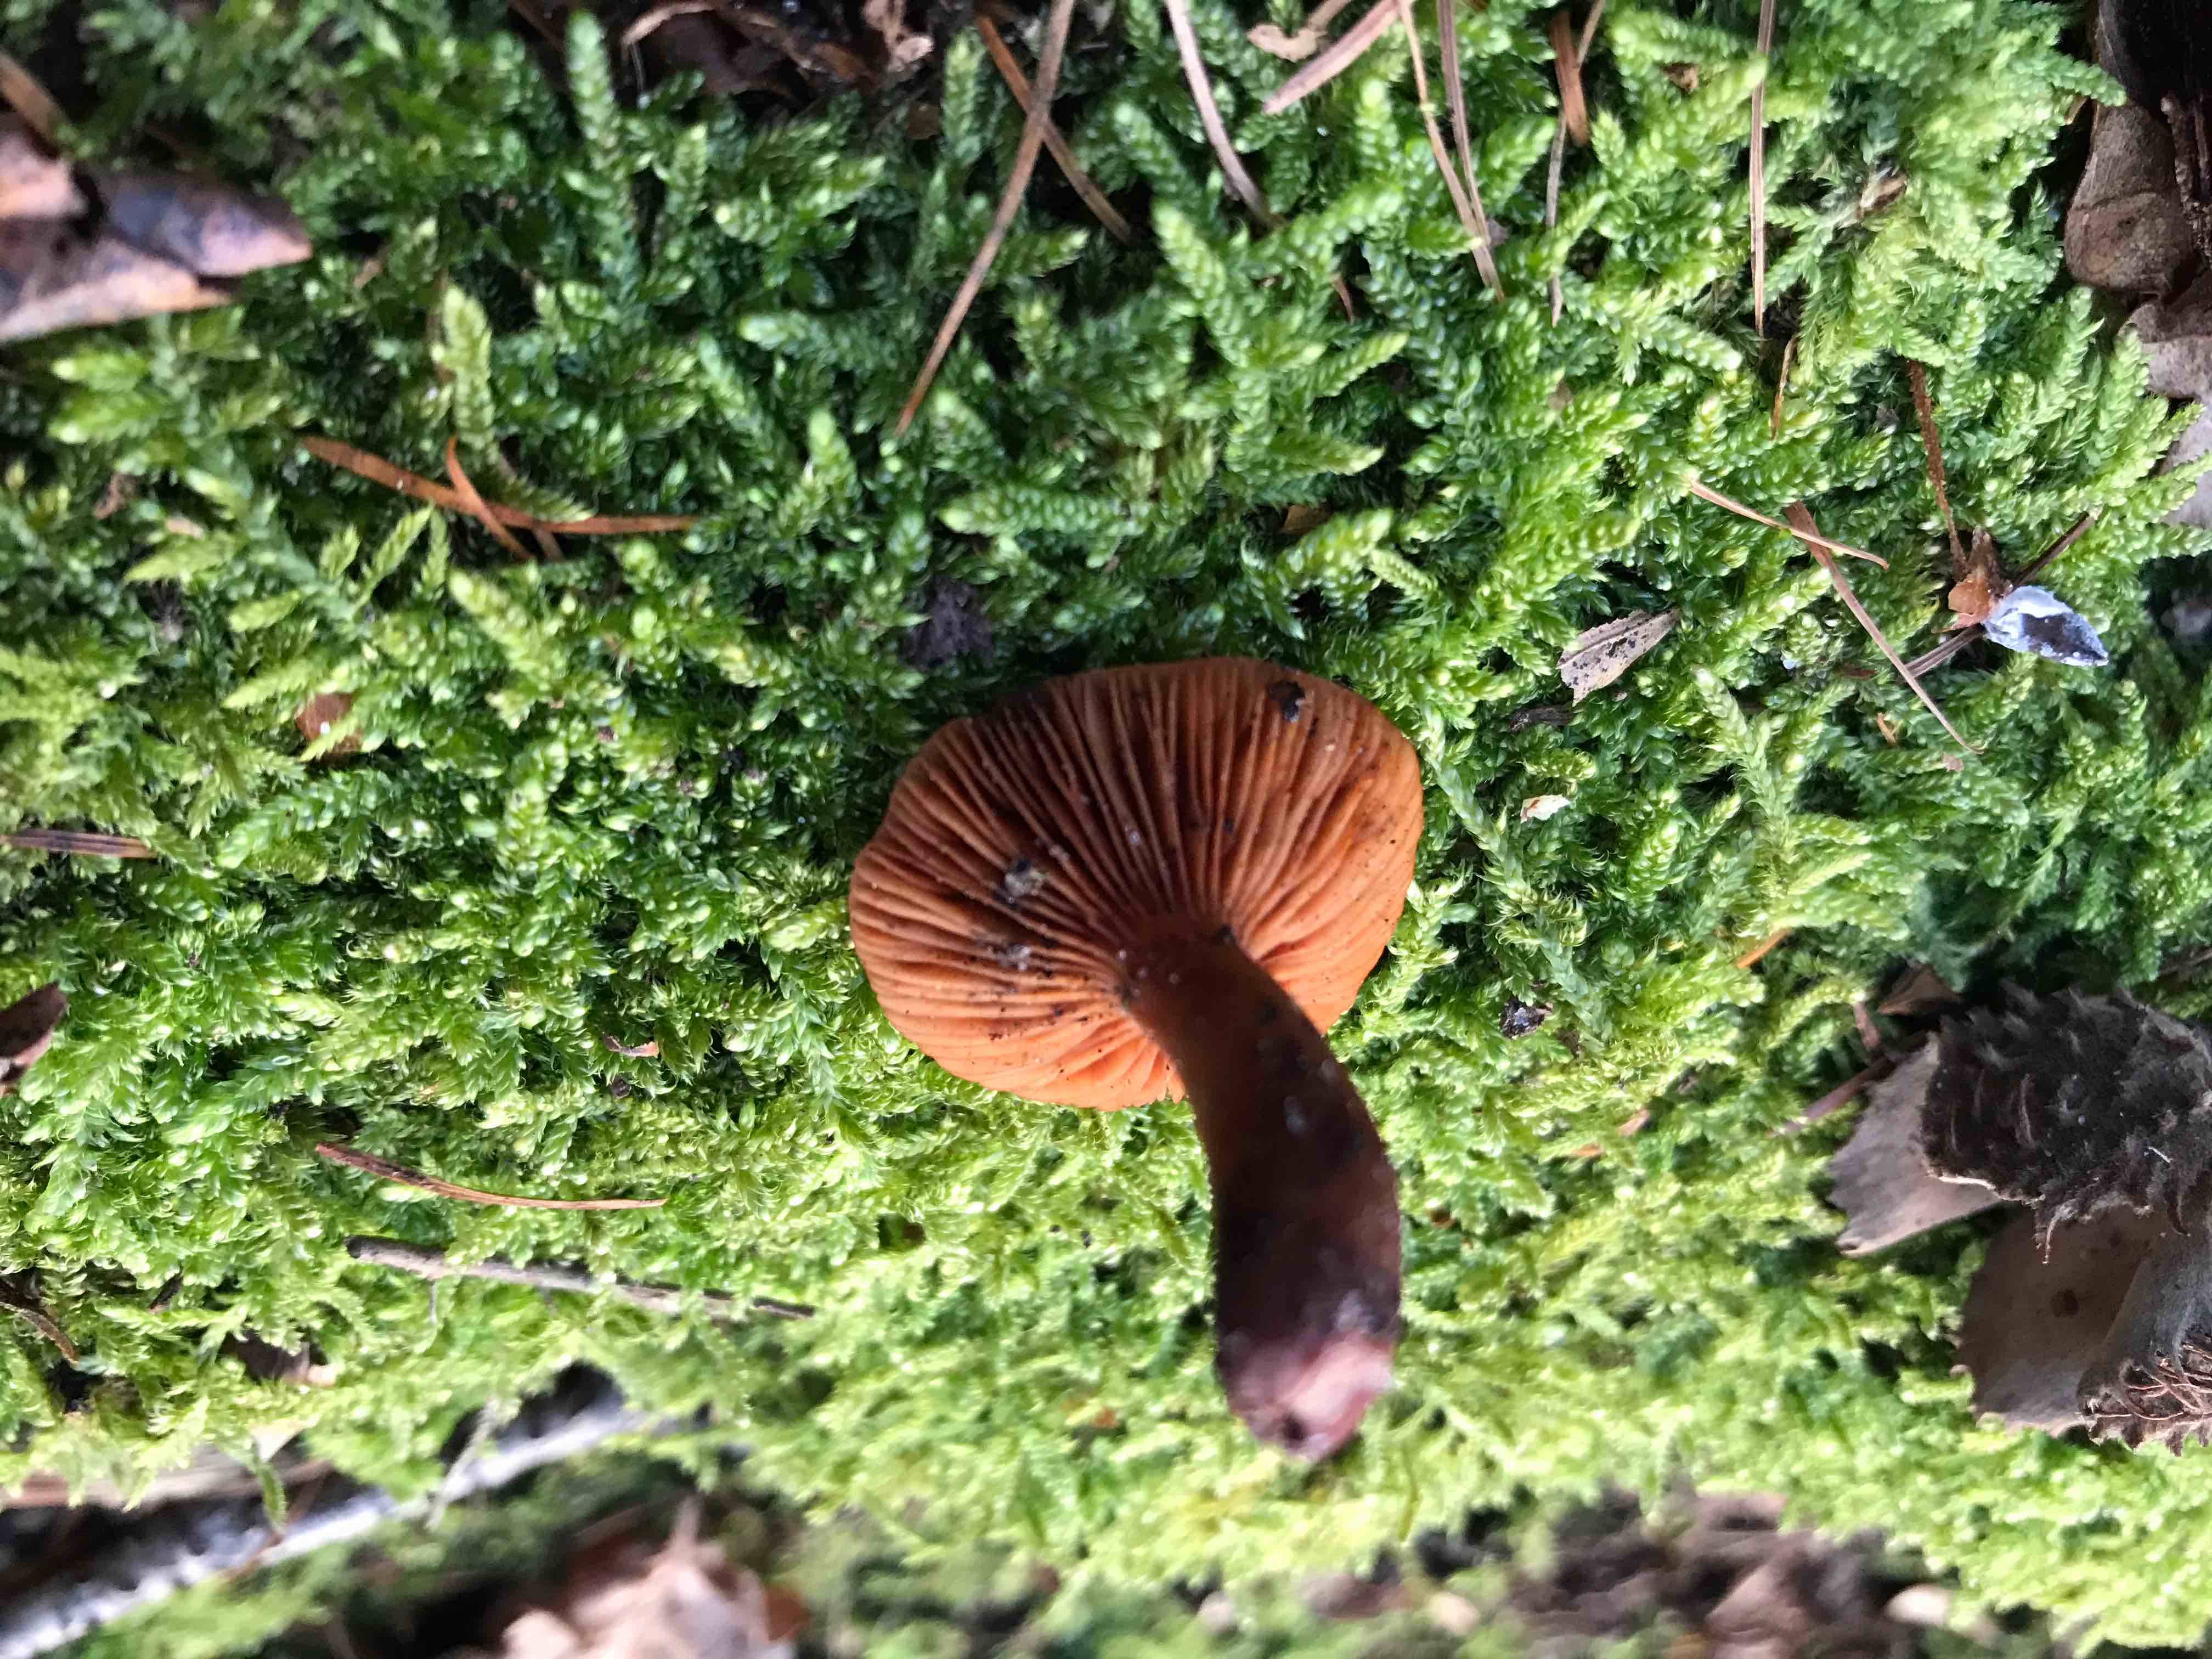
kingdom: Fungi
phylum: Basidiomycota
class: Agaricomycetes
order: Russulales
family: Russulaceae
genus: Lactarius
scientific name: Lactarius
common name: mælkehat
